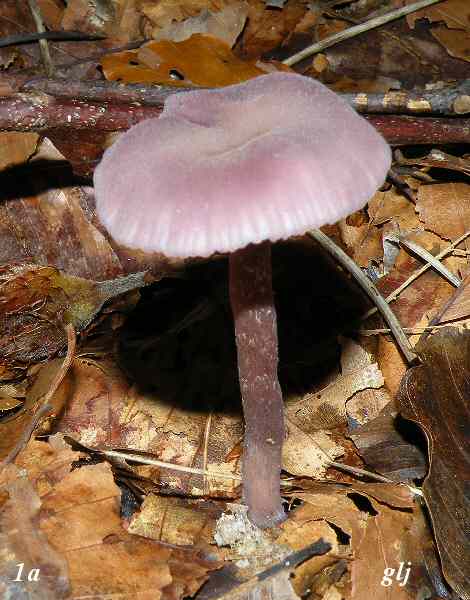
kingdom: Fungi
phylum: Basidiomycota
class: Agaricomycetes
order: Agaricales
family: Hydnangiaceae
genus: Laccaria
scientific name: Laccaria amethystina
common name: violet ametysthat
